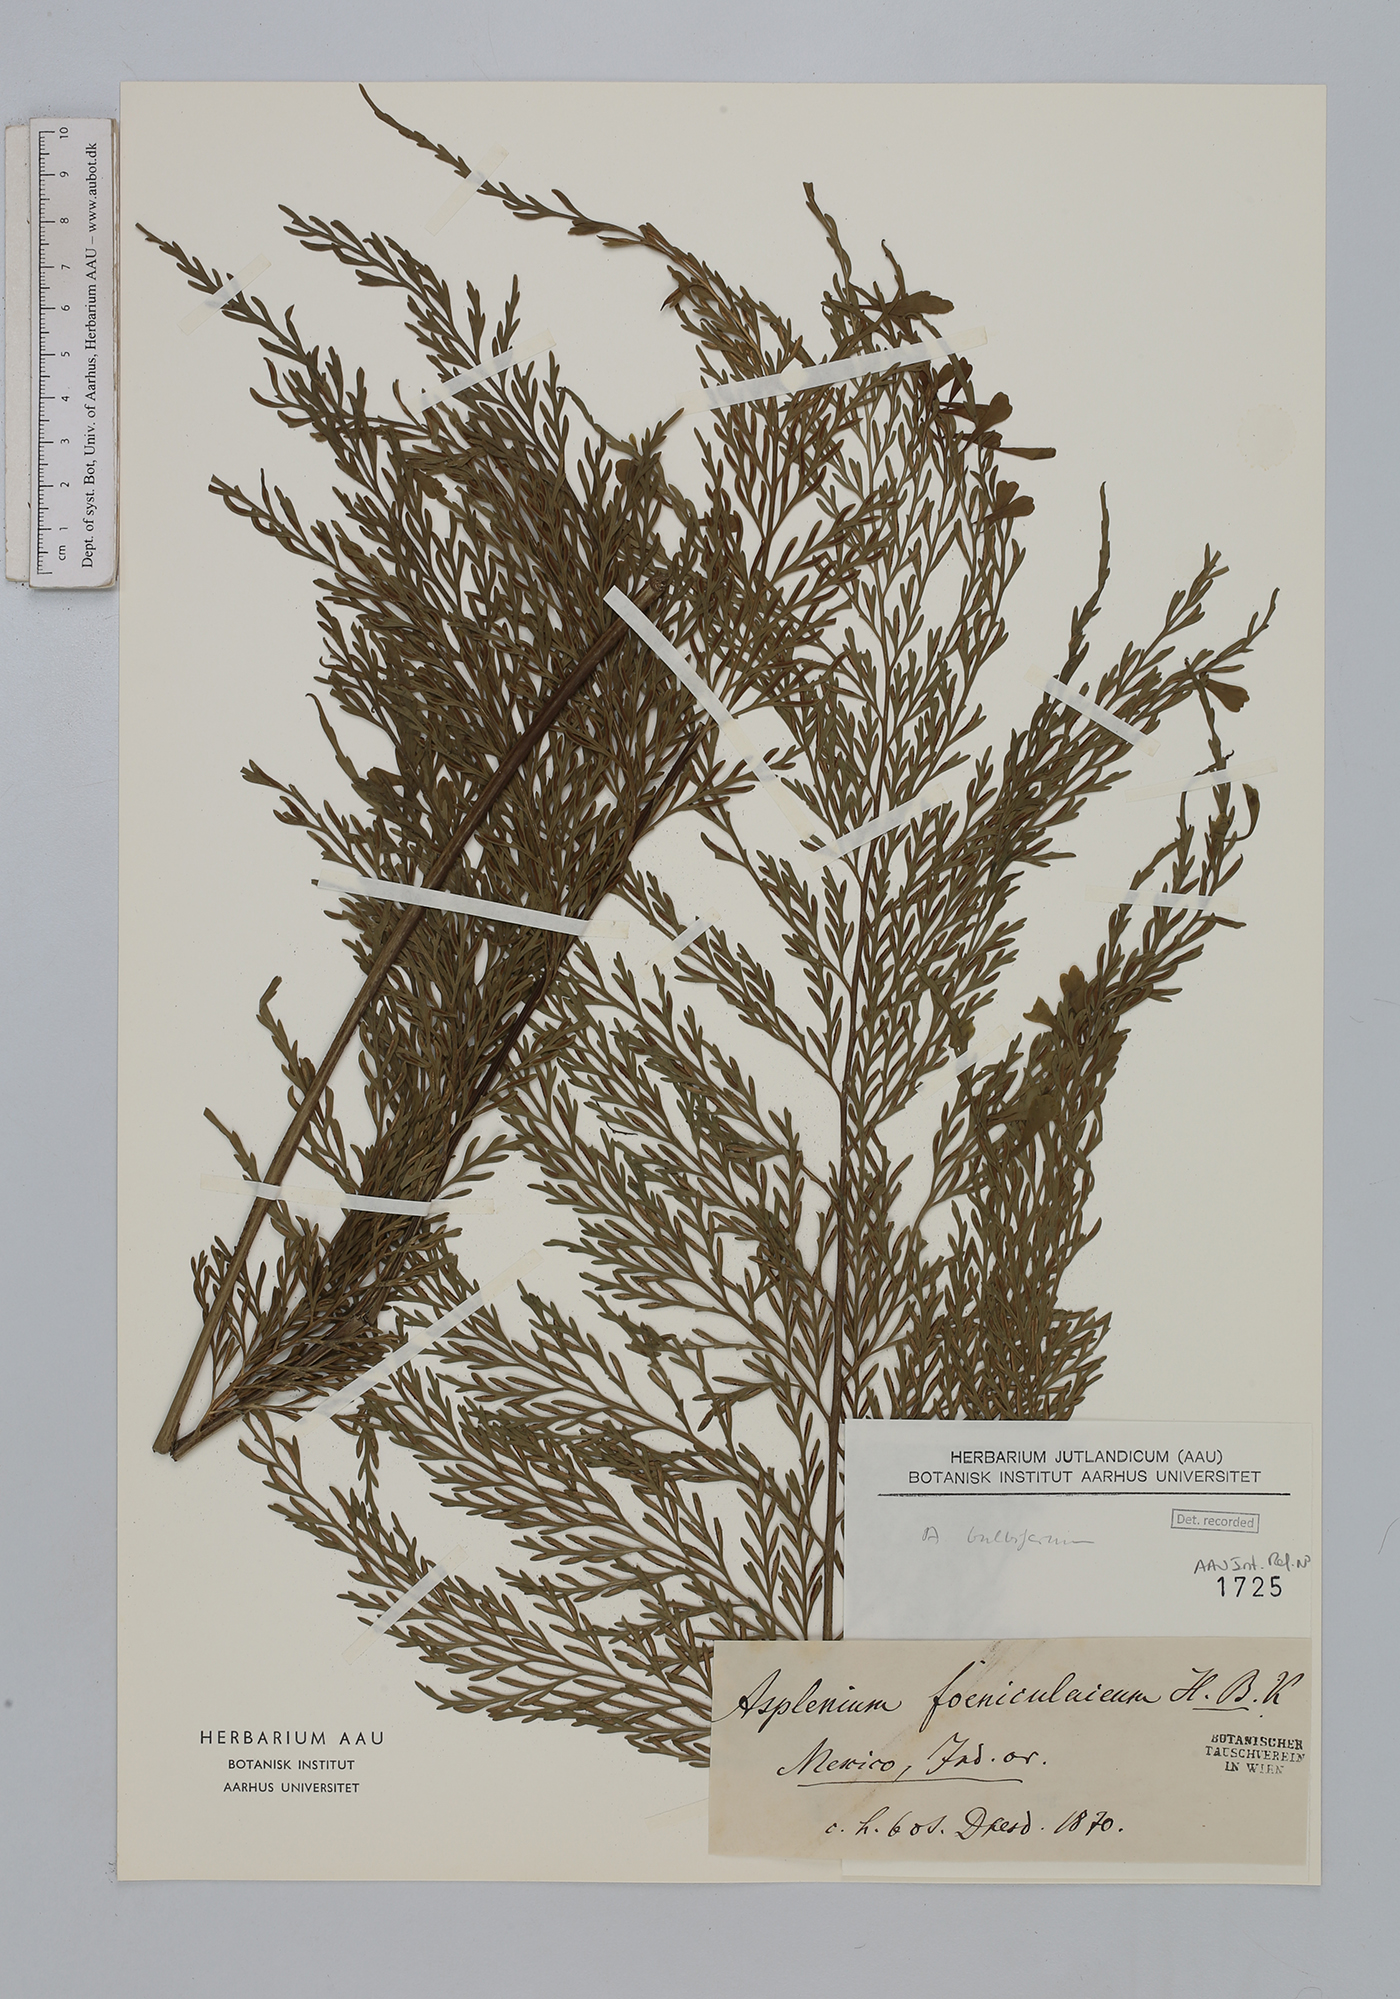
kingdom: Plantae
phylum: Tracheophyta
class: Polypodiopsida
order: Polypodiales
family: Aspleniaceae
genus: Asplenium
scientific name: Asplenium bulbiferum
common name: Mother fern
